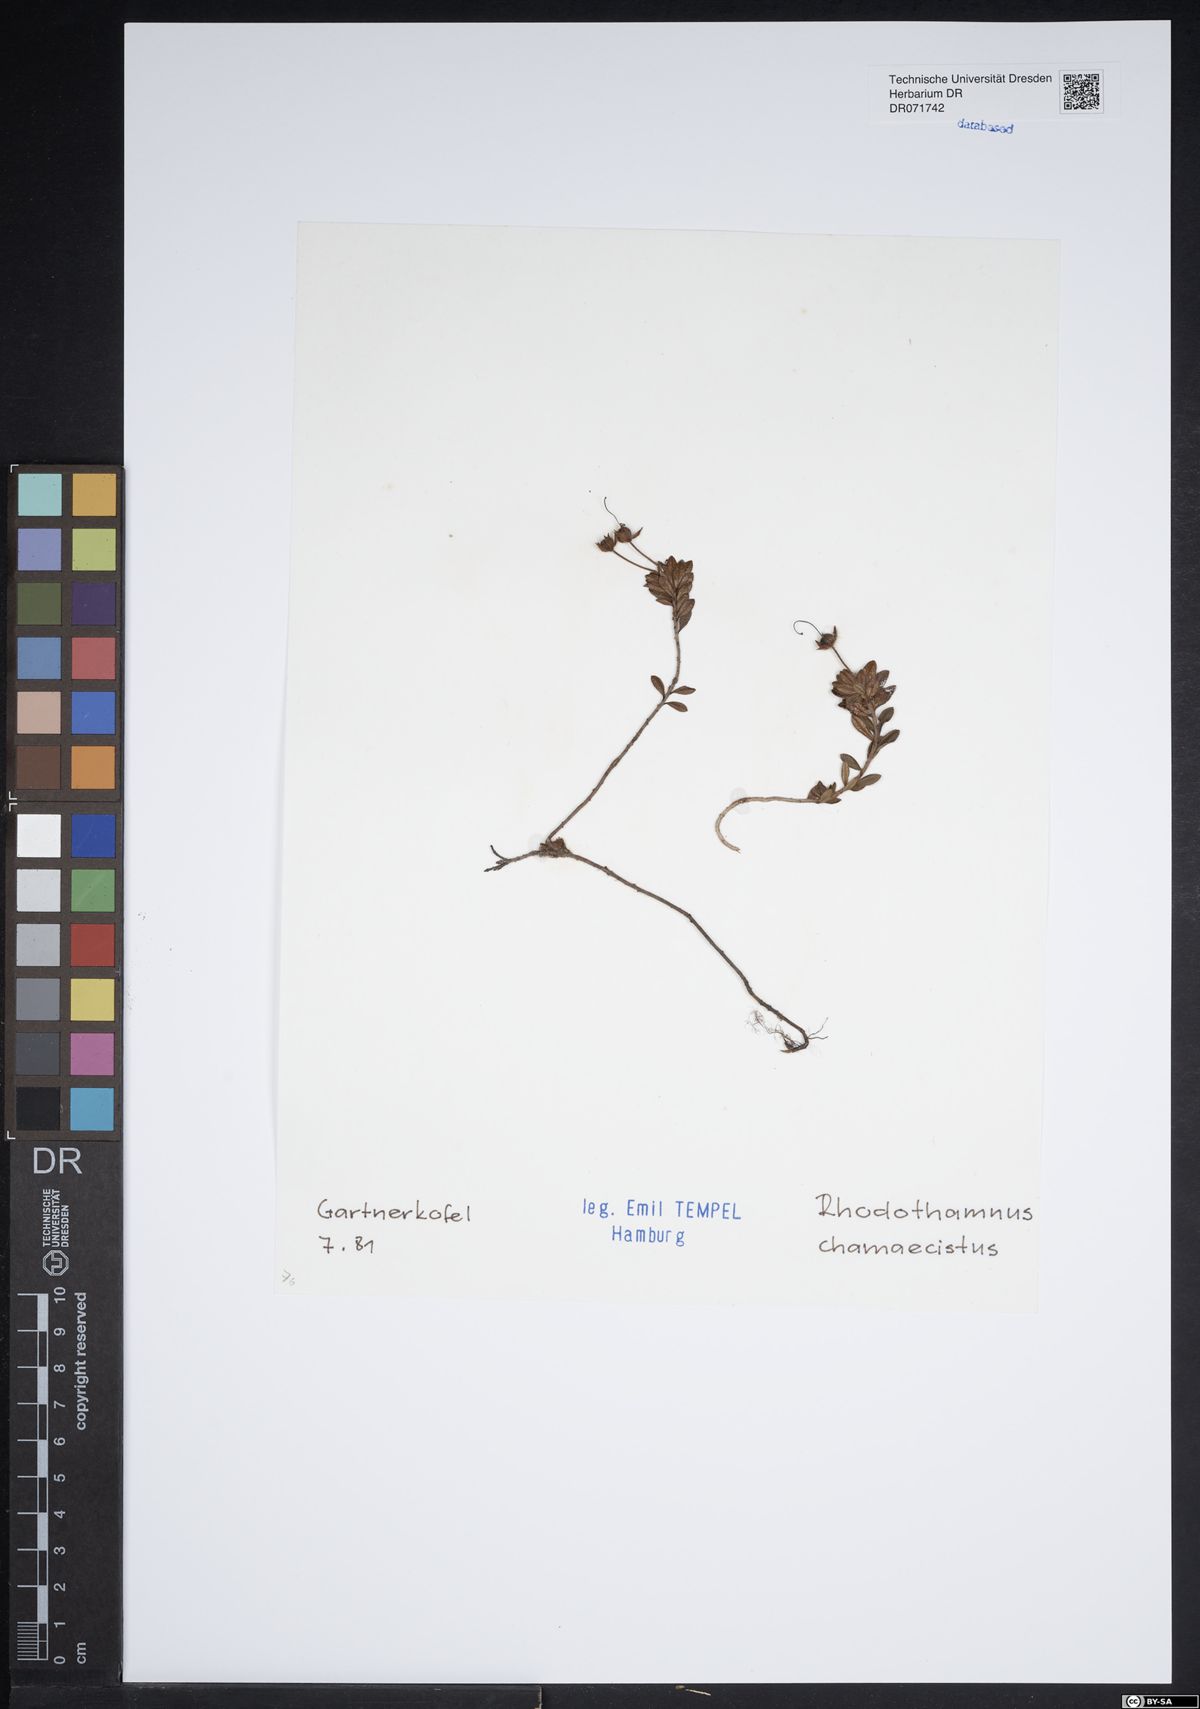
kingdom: Plantae
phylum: Tracheophyta
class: Magnoliopsida
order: Ericales
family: Ericaceae
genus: Rhodothamnus
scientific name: Rhodothamnus chamaecistus
